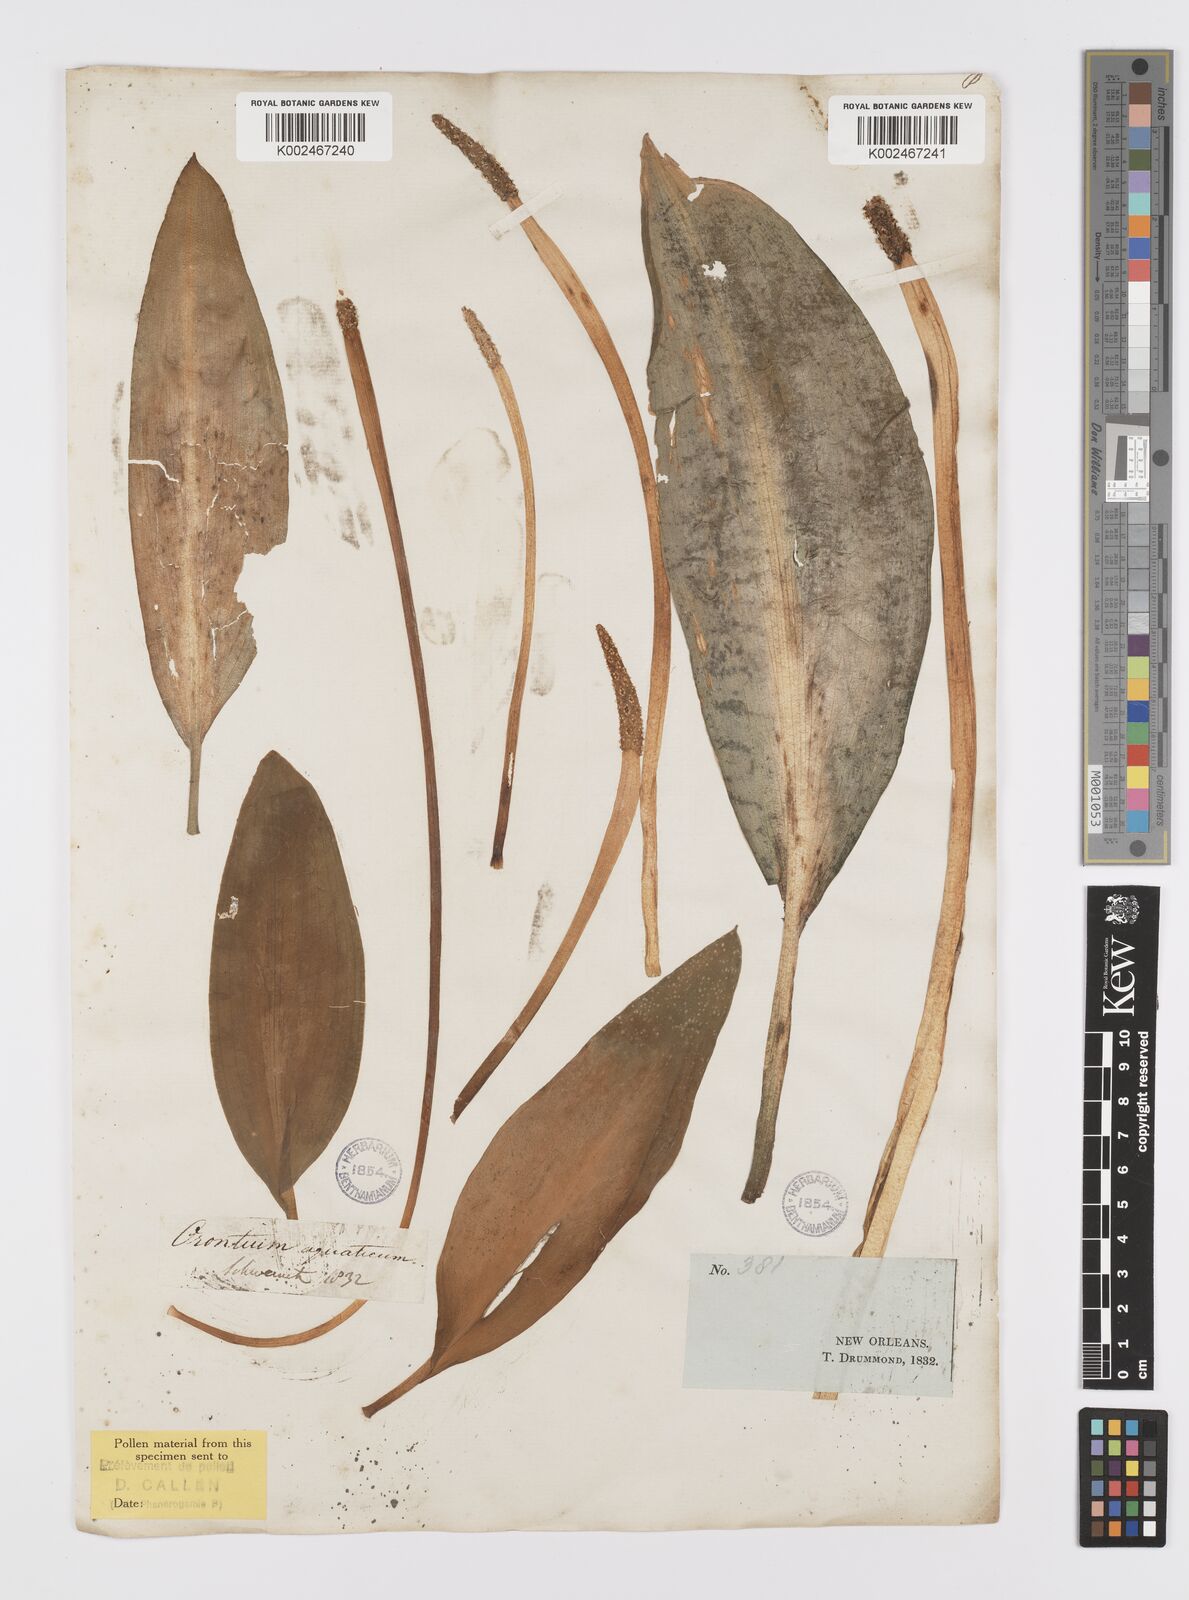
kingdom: Plantae
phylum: Tracheophyta
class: Liliopsida
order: Alismatales
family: Araceae
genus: Orontium
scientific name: Orontium aquaticum
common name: Golden-club
